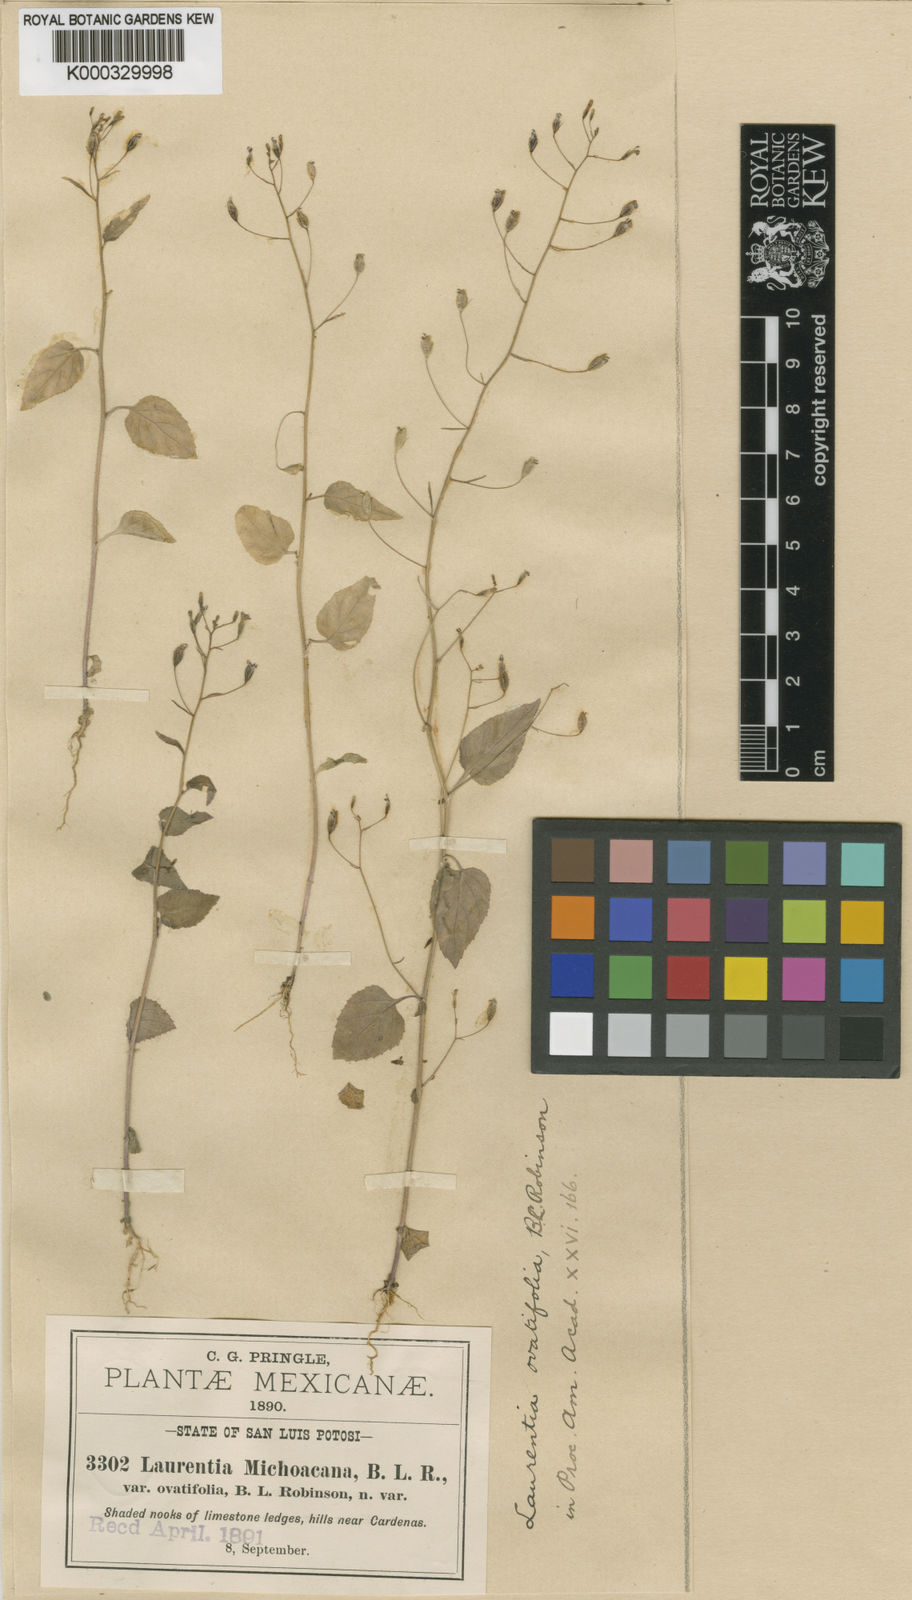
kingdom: Plantae
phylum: Tracheophyta
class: Magnoliopsida
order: Asterales
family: Campanulaceae
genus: Diastatea
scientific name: Diastatea micrantha
